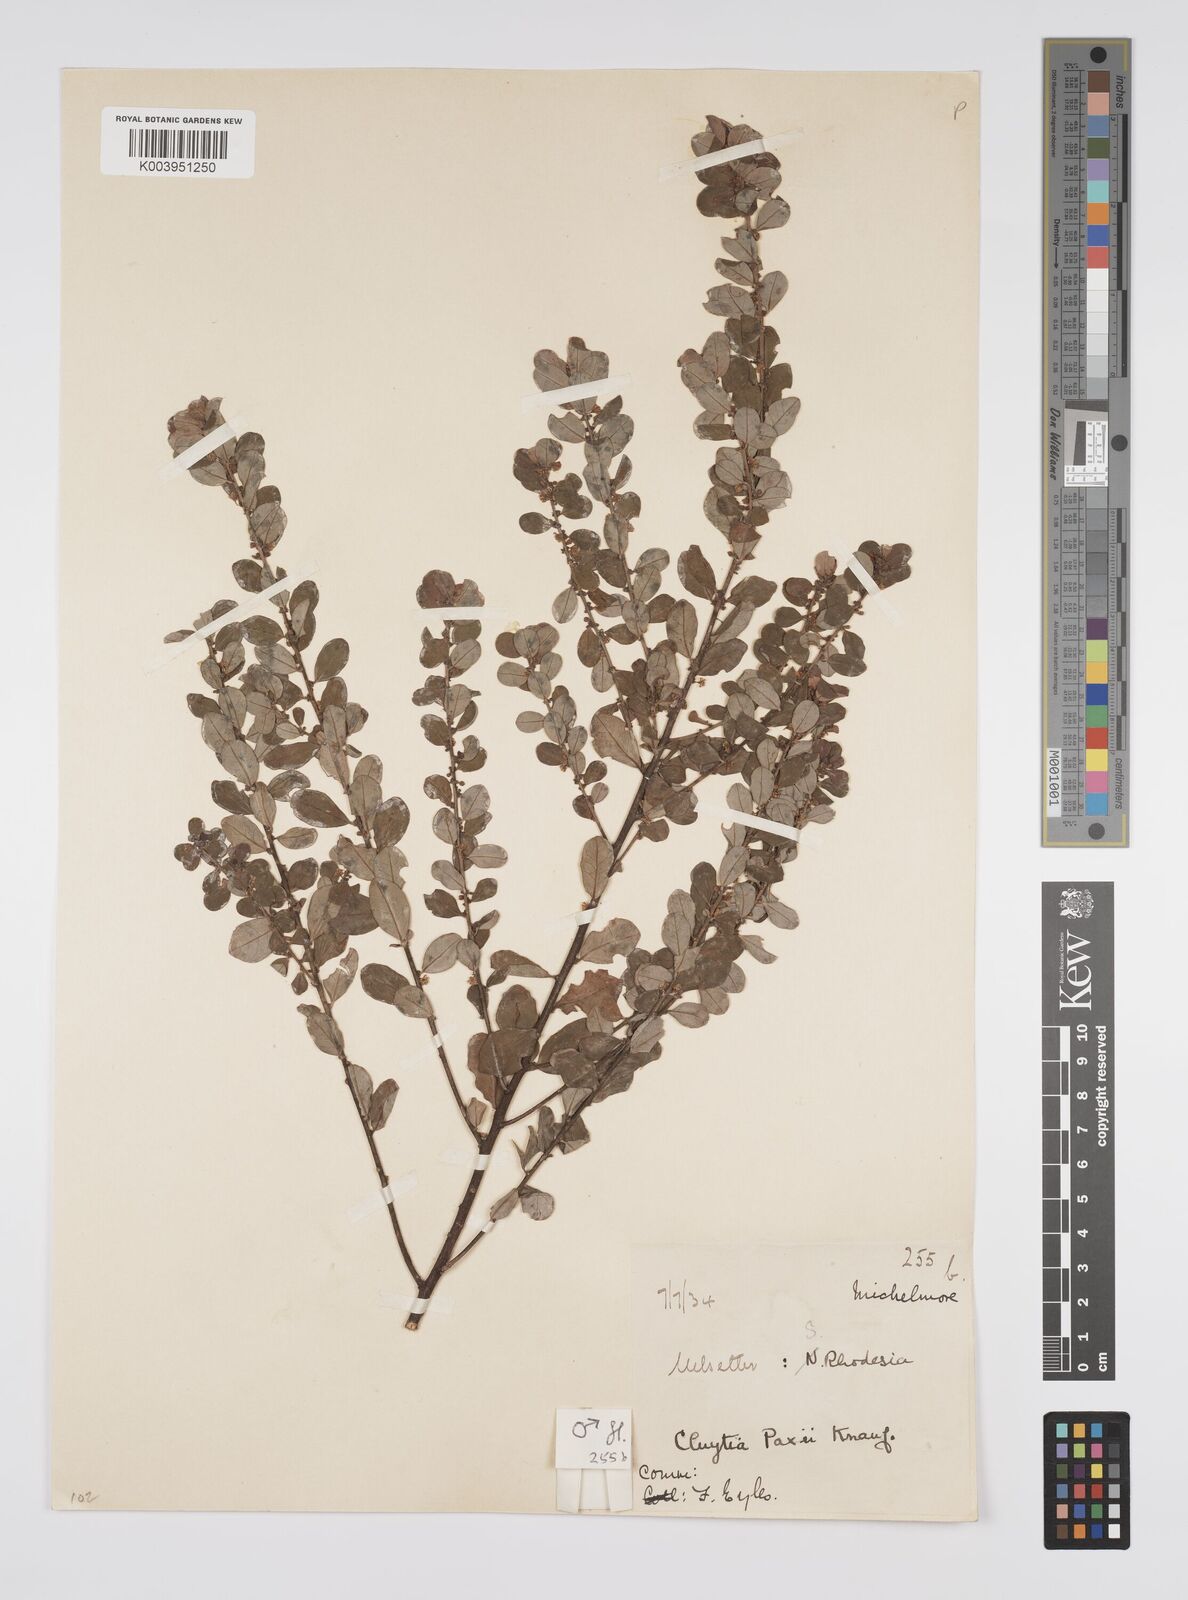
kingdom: Plantae
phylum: Tracheophyta
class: Magnoliopsida
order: Malpighiales
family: Peraceae
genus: Clutia
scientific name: Clutia paxii
